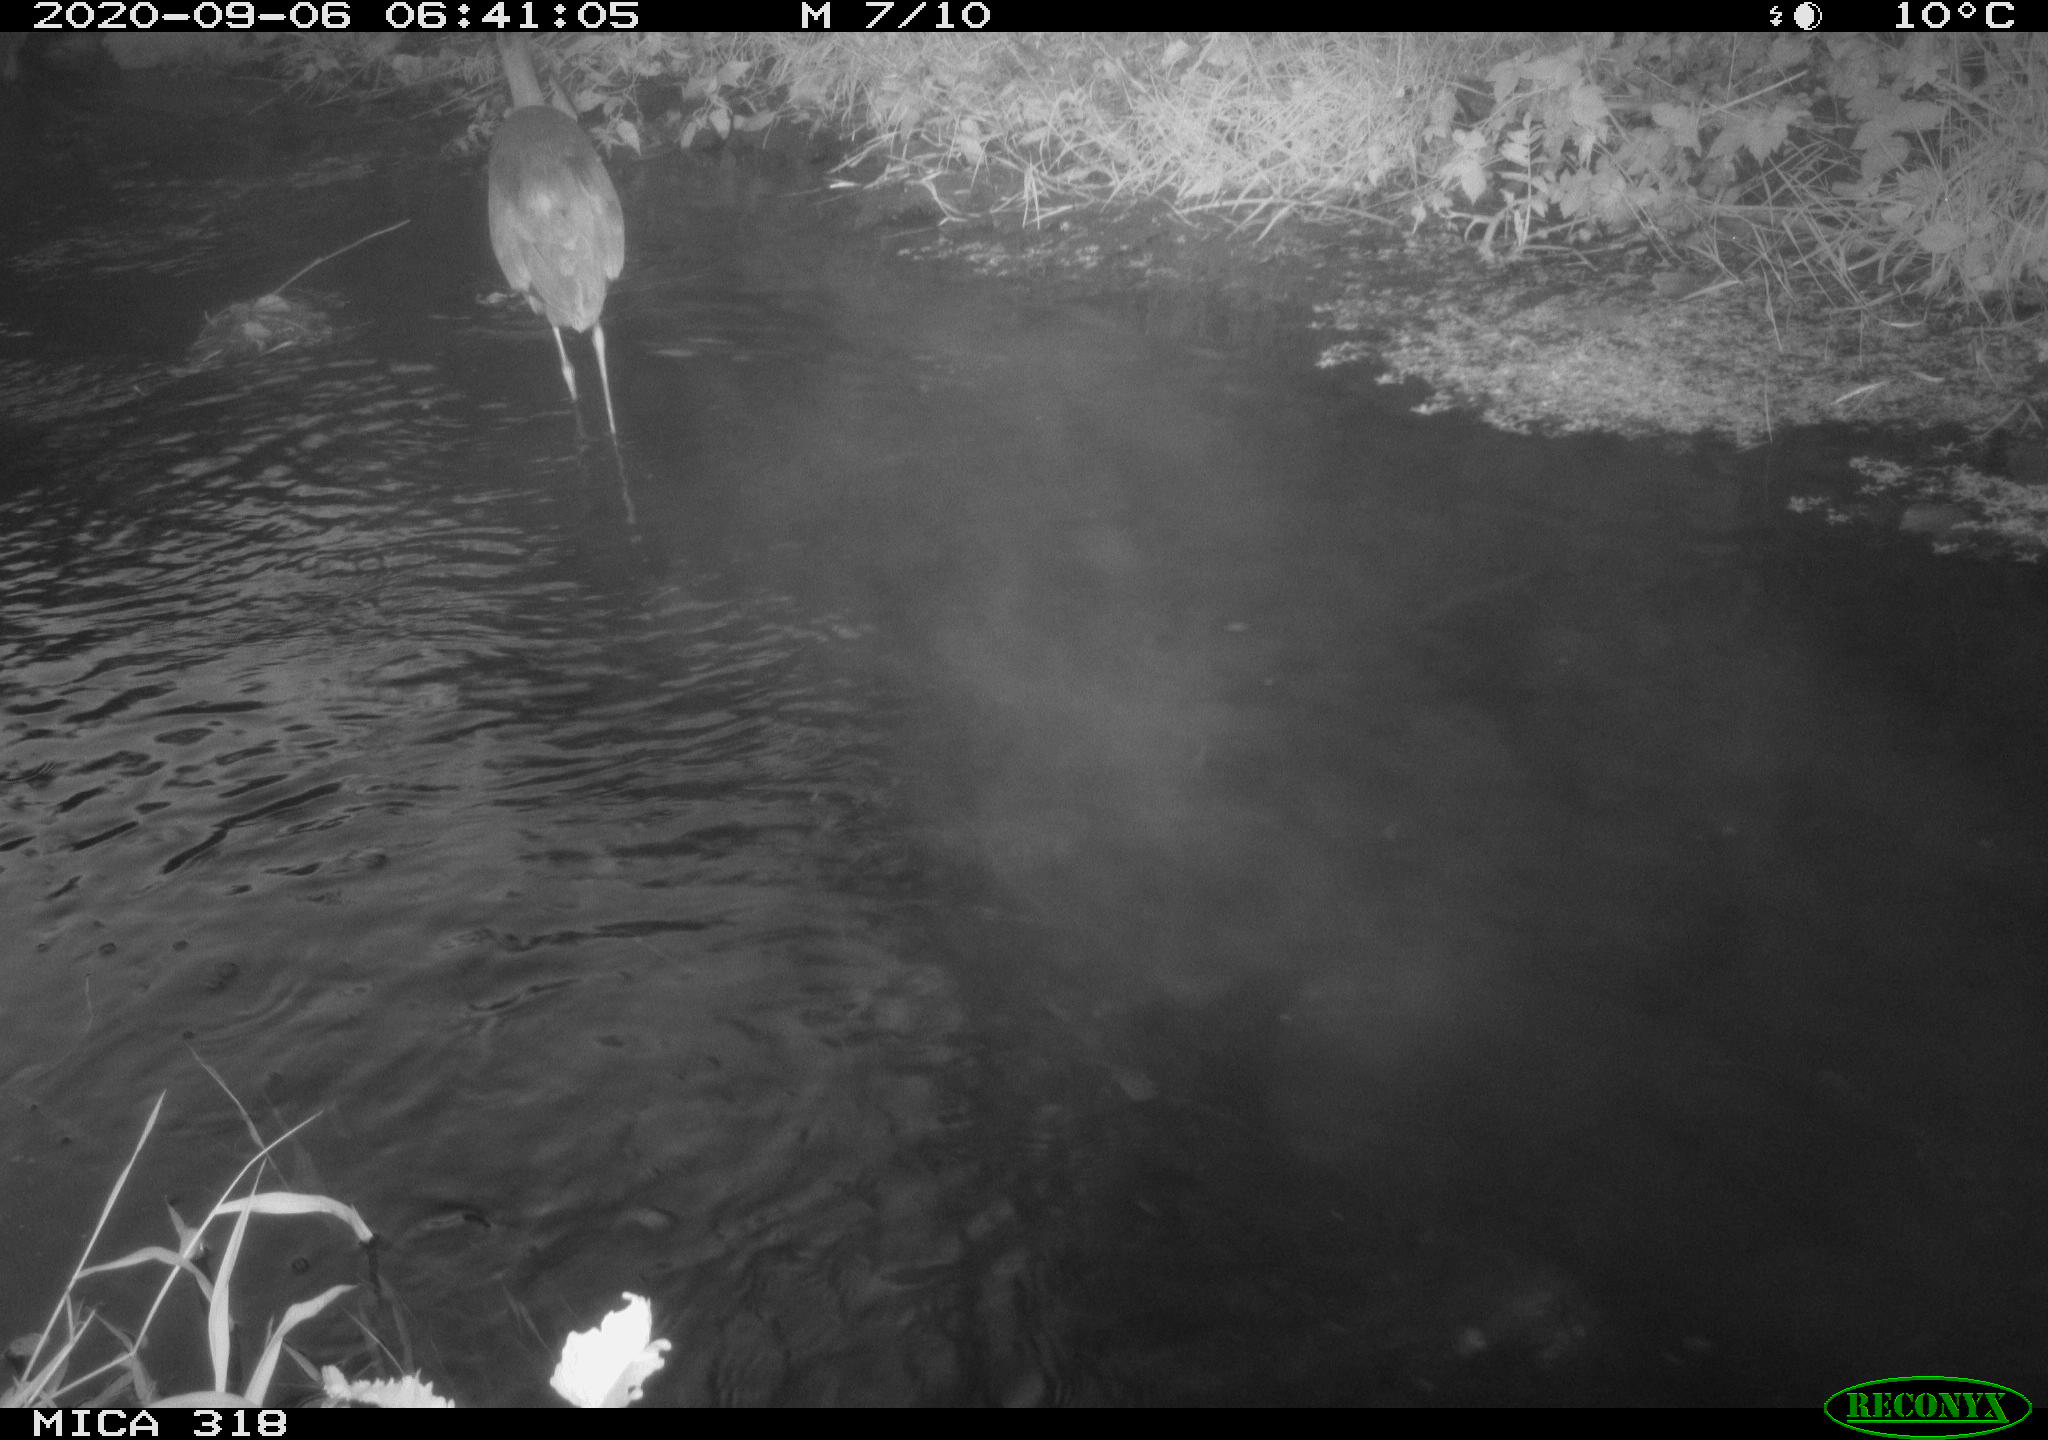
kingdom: Animalia
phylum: Chordata
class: Aves
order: Pelecaniformes
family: Ardeidae
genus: Ardea
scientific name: Ardea
